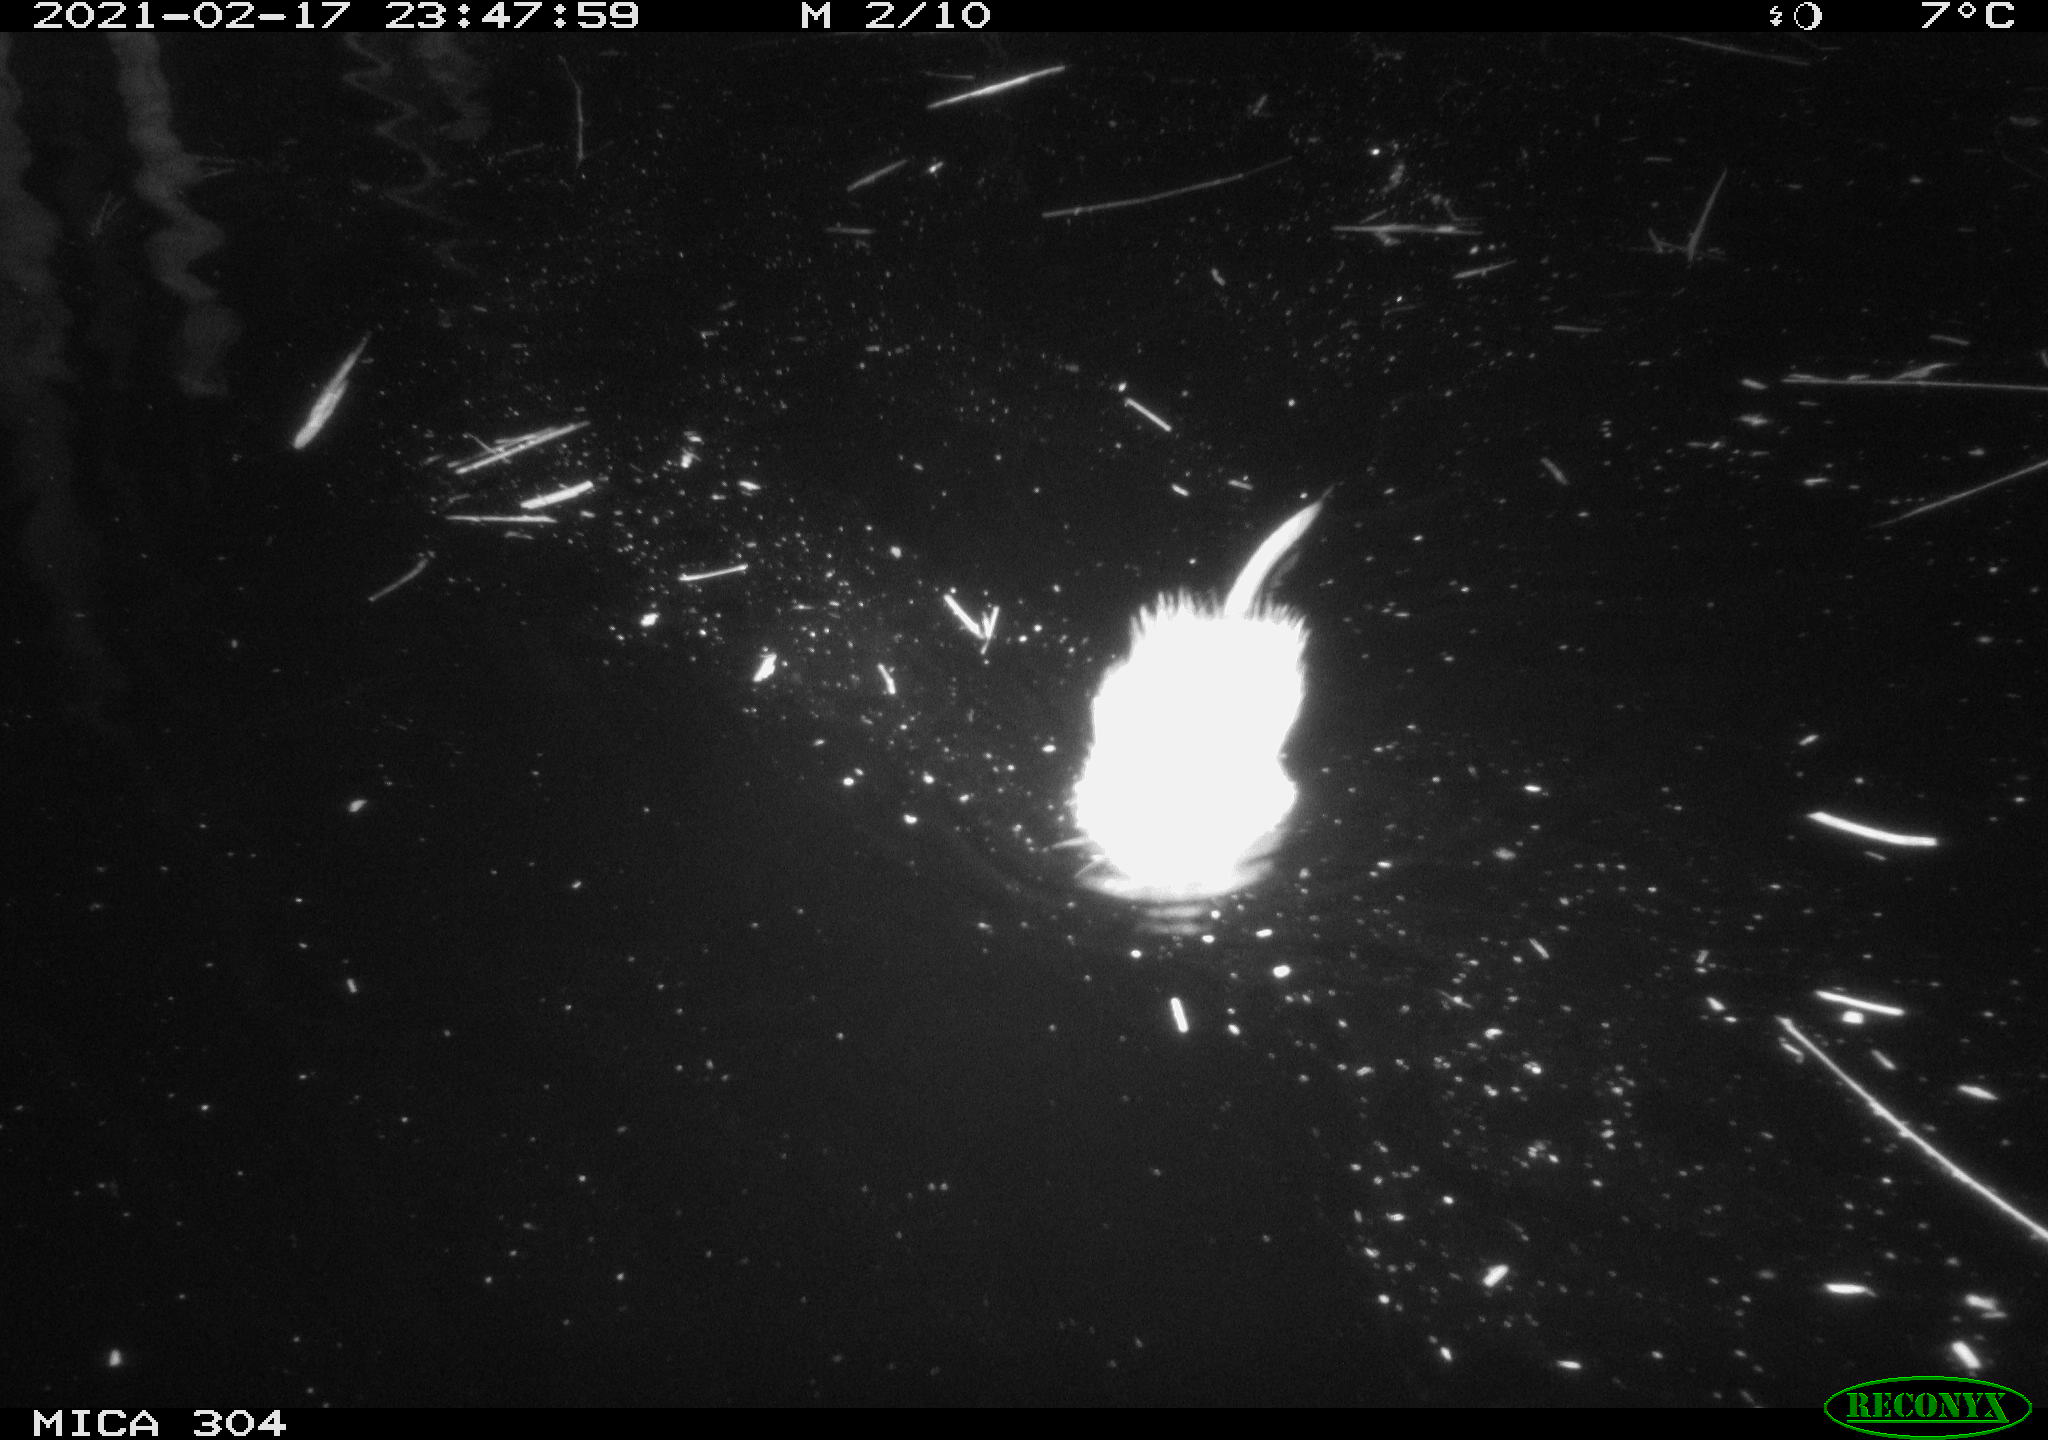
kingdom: Animalia
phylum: Chordata
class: Mammalia
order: Rodentia
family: Cricetidae
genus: Ondatra
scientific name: Ondatra zibethicus
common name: Muskrat
